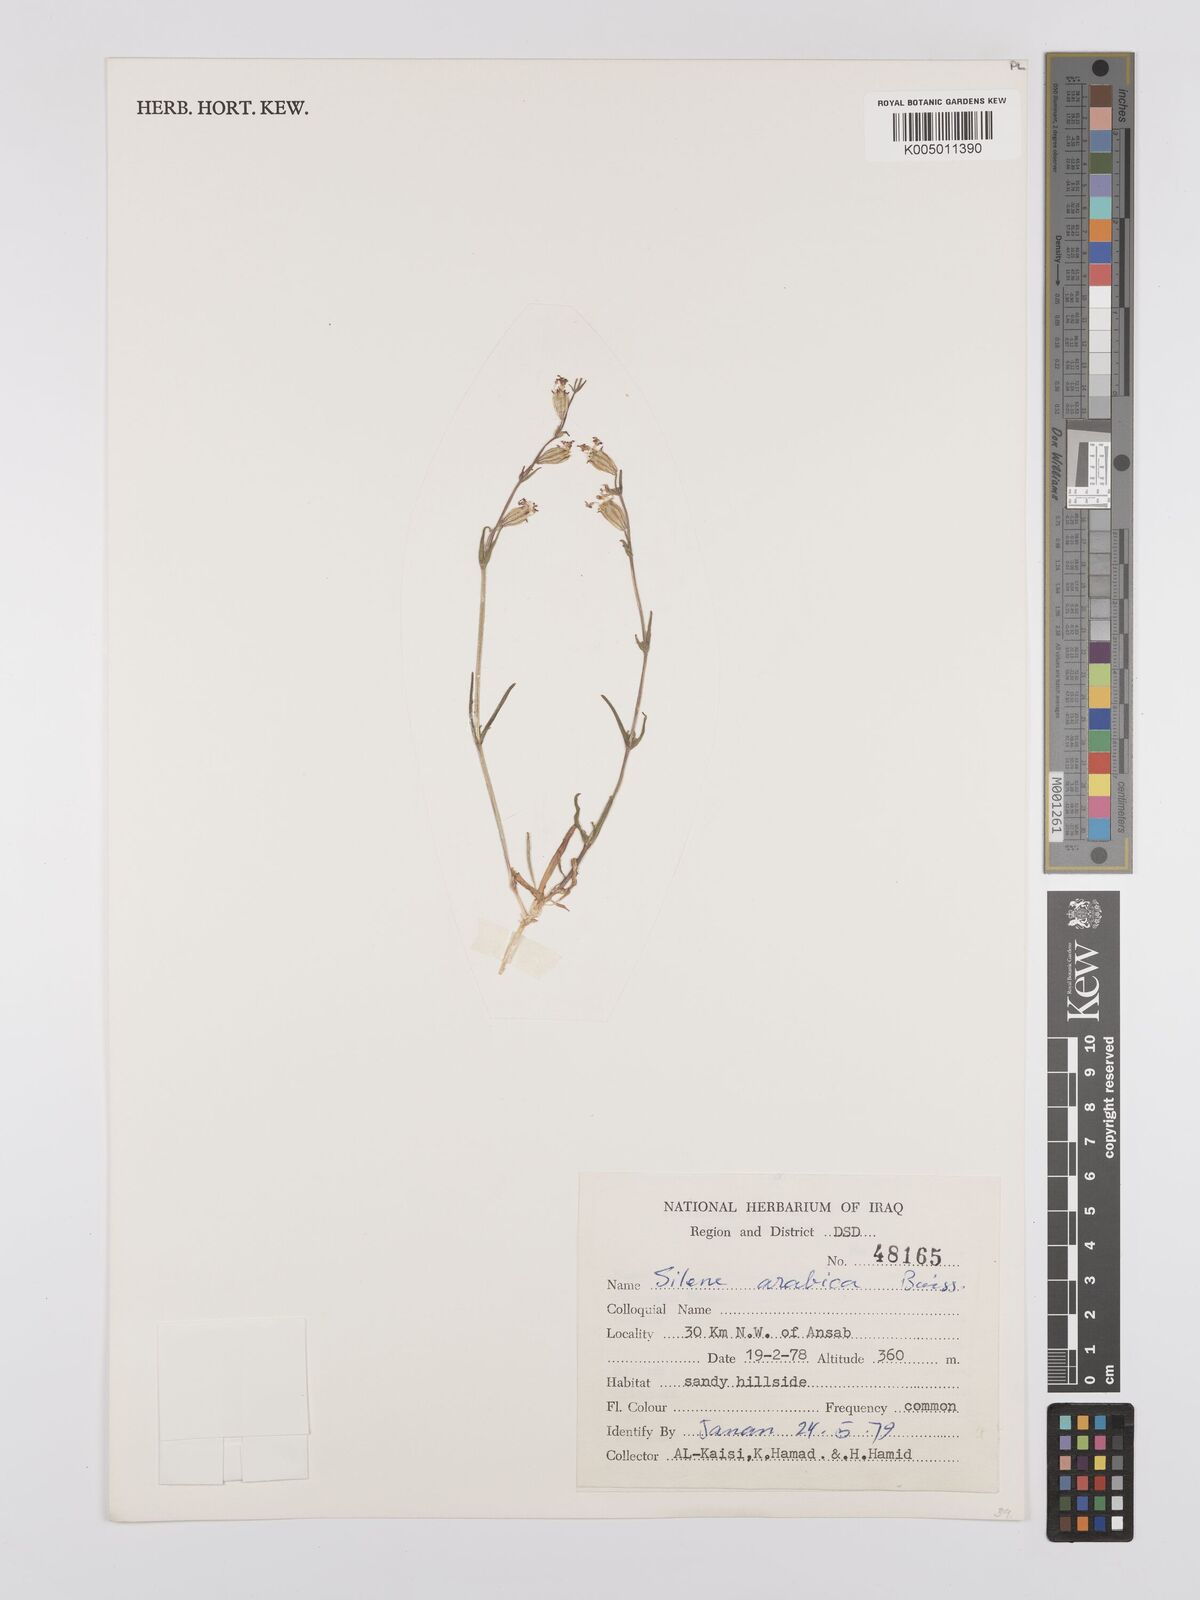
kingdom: Plantae
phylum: Tracheophyta
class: Magnoliopsida
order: Caryophyllales
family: Caryophyllaceae
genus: Silene
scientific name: Silene arabica
